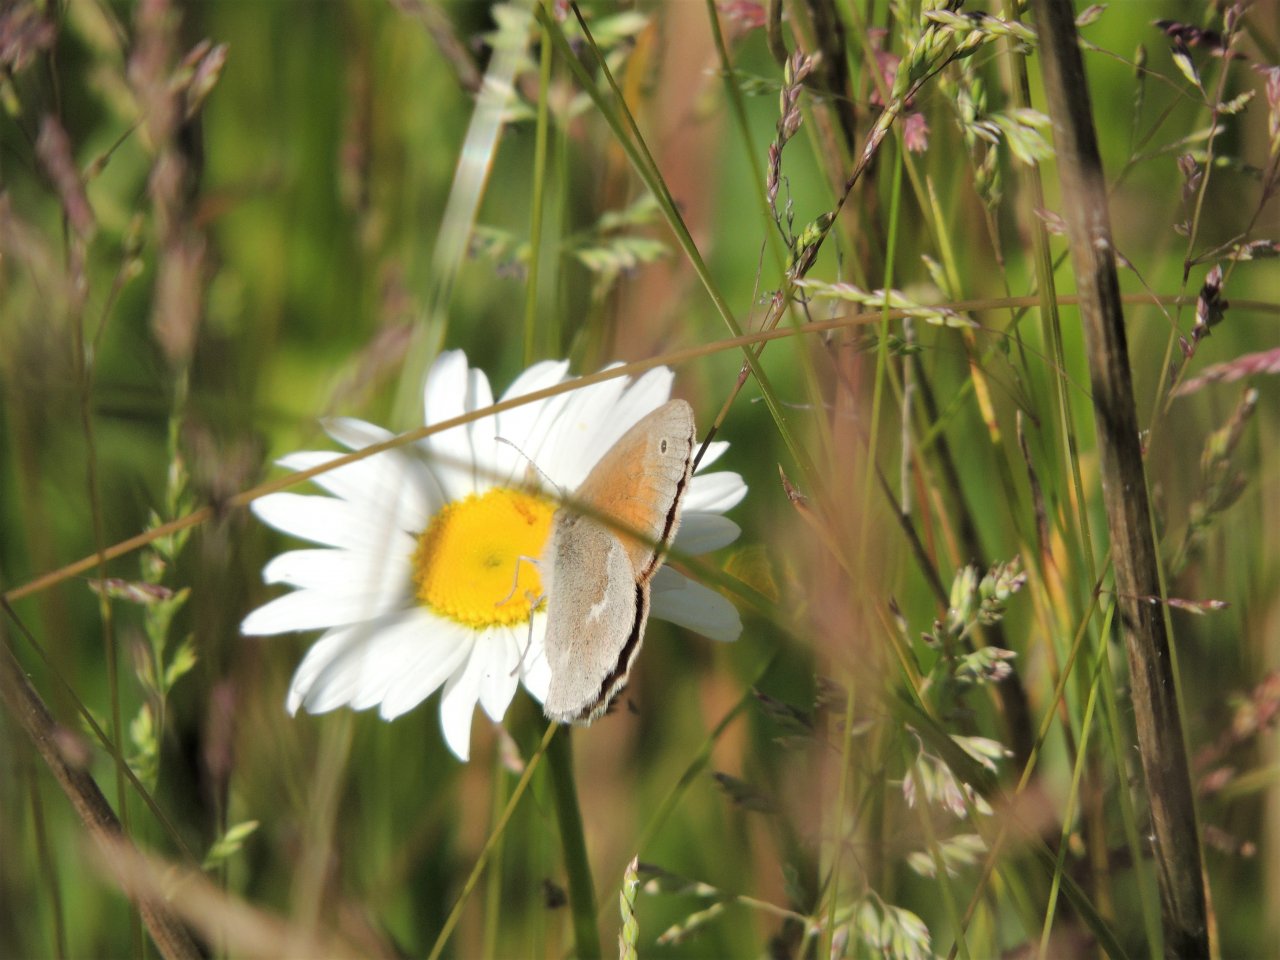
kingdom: Animalia
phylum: Arthropoda
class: Insecta
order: Lepidoptera
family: Nymphalidae
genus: Coenonympha
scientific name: Coenonympha tullia
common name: Large Heath
